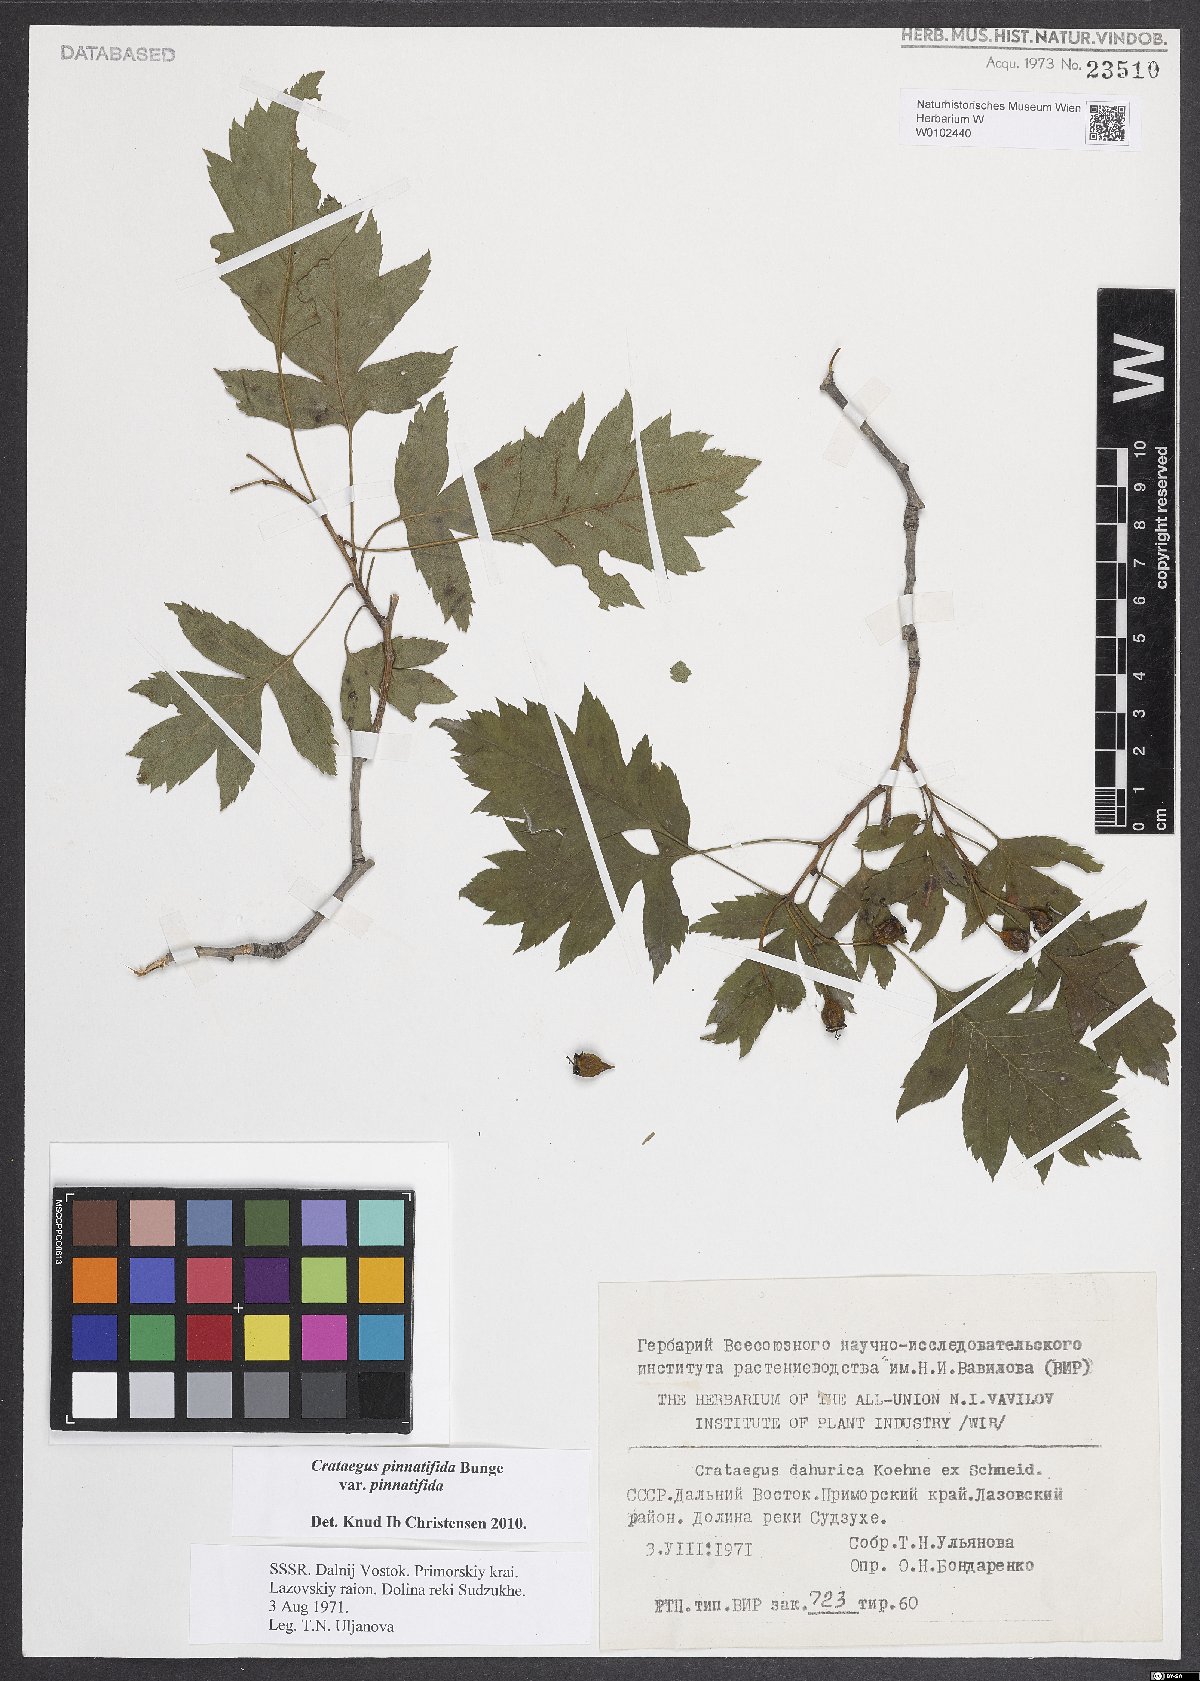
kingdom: Plantae
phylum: Tracheophyta
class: Magnoliopsida
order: Rosales
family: Rosaceae
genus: Crataegus
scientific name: Crataegus pinnatifida
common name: Chinese haw
